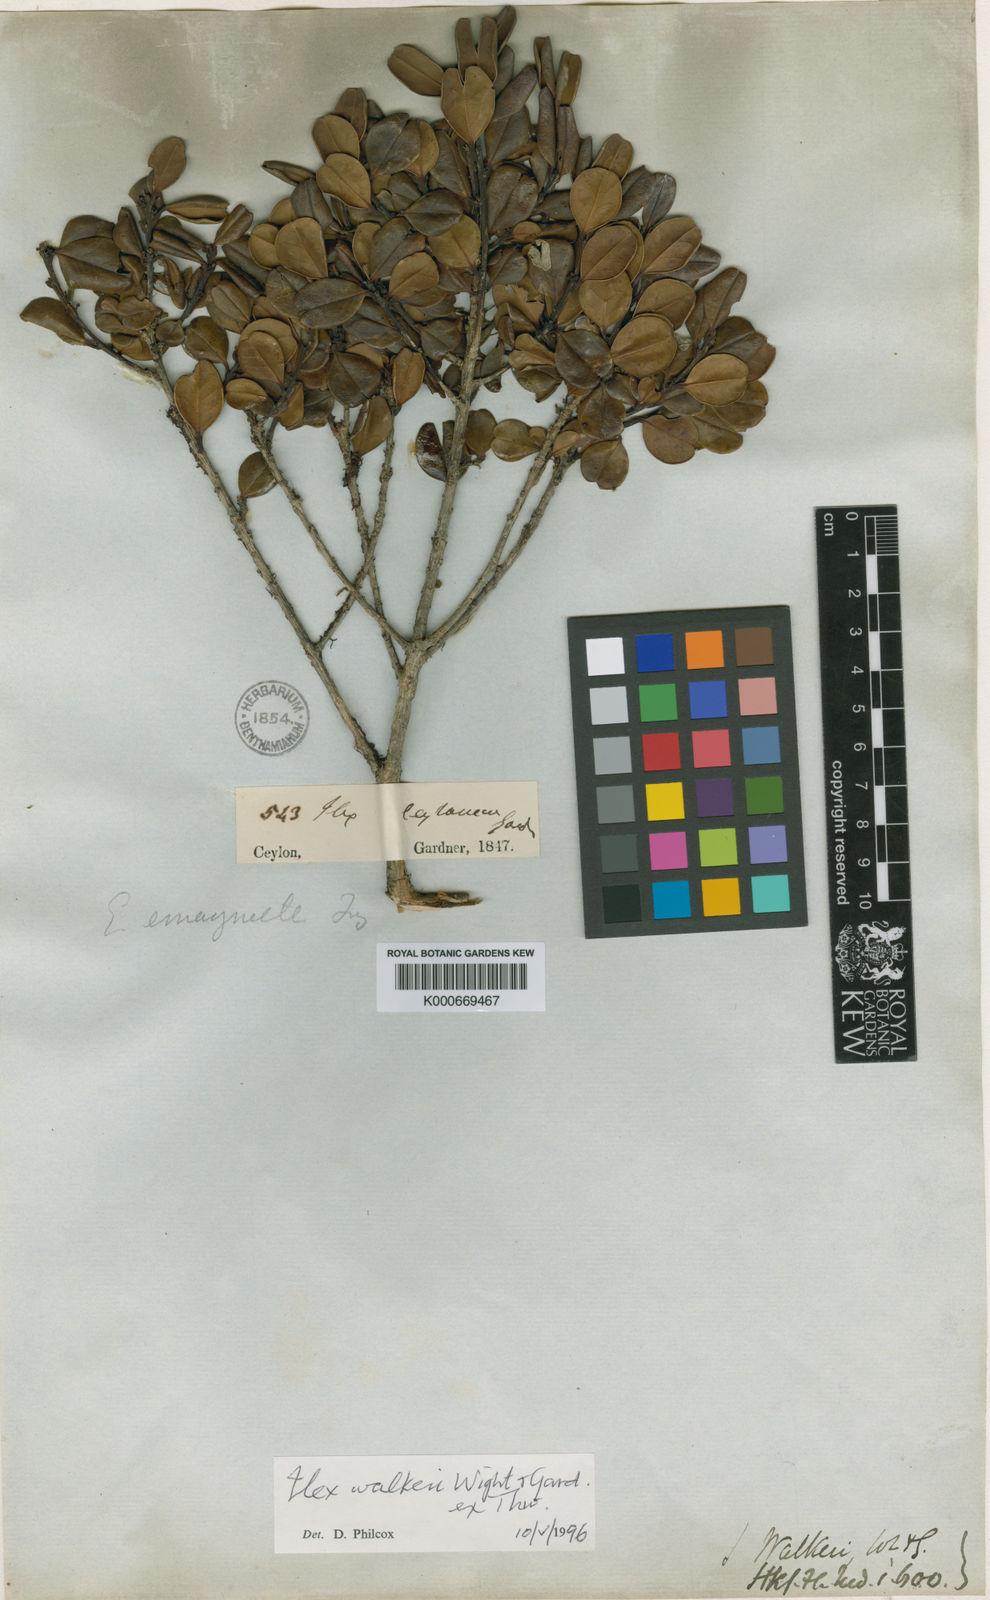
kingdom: Plantae
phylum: Tracheophyta
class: Magnoliopsida
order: Aquifoliales
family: Aquifoliaceae
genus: Ilex
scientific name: Ilex walkeri
